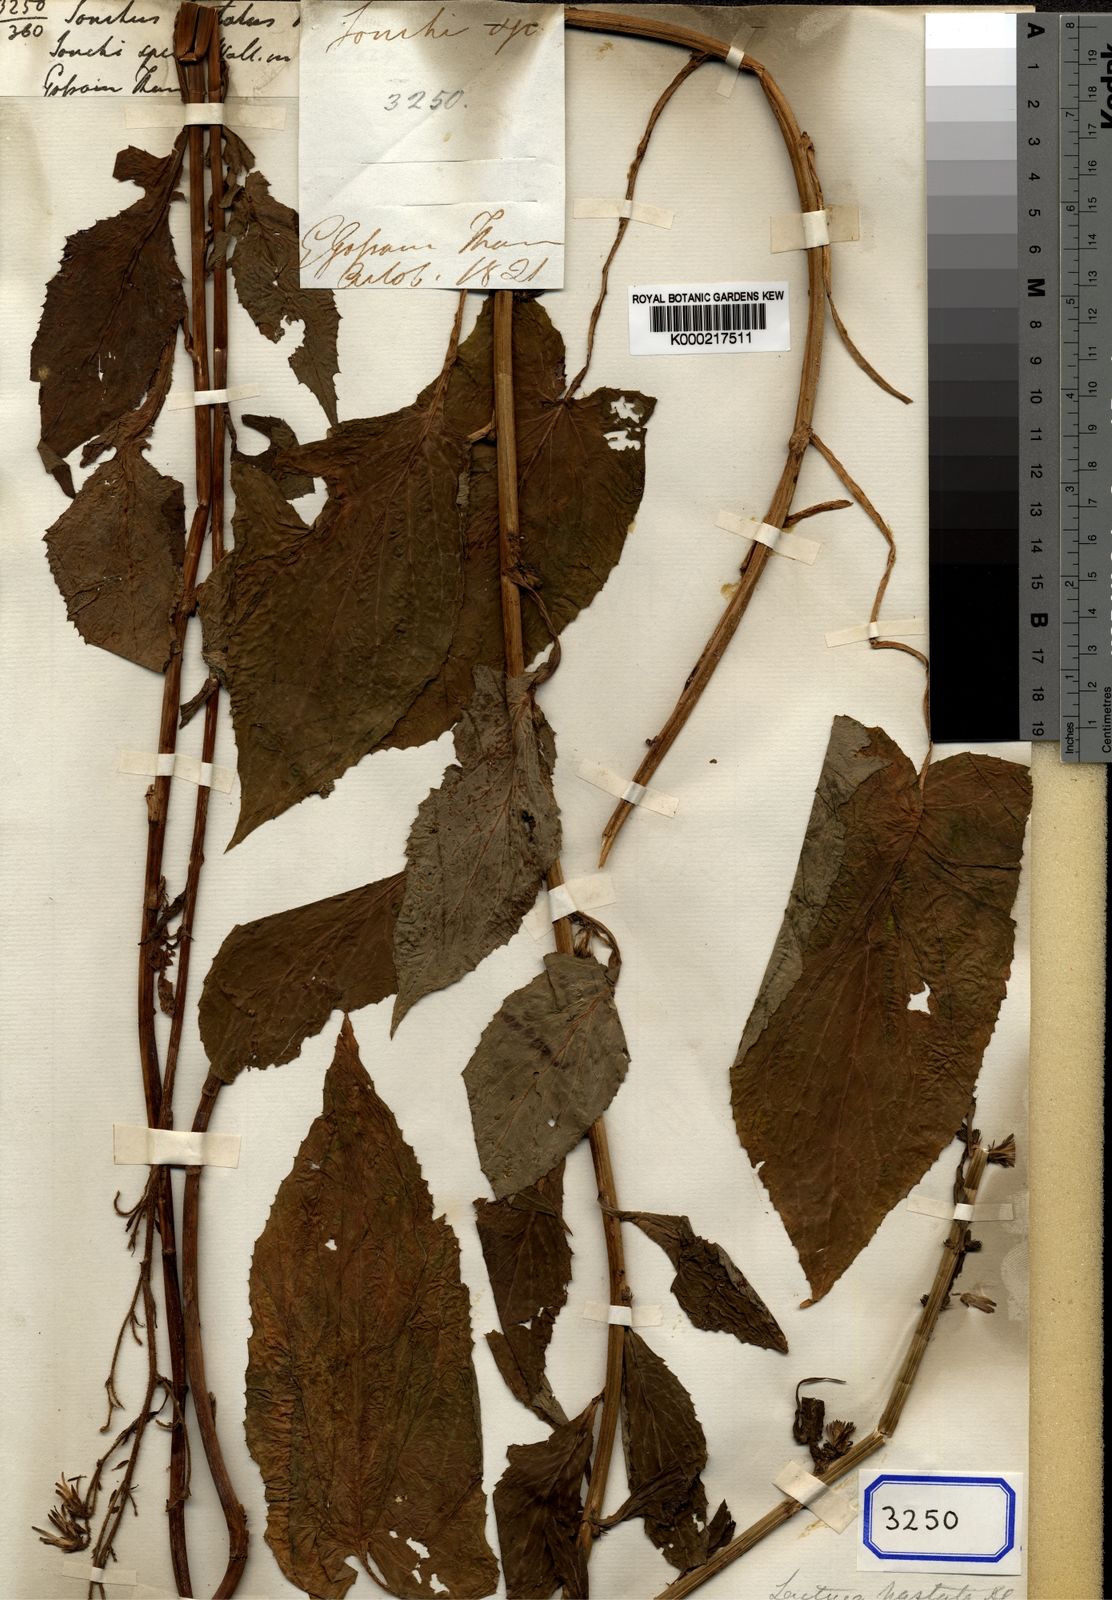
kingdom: Plantae
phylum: Tracheophyta
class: Magnoliopsida
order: Asterales
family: Asteraceae
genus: Melanoseris
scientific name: Melanoseris cyanea
